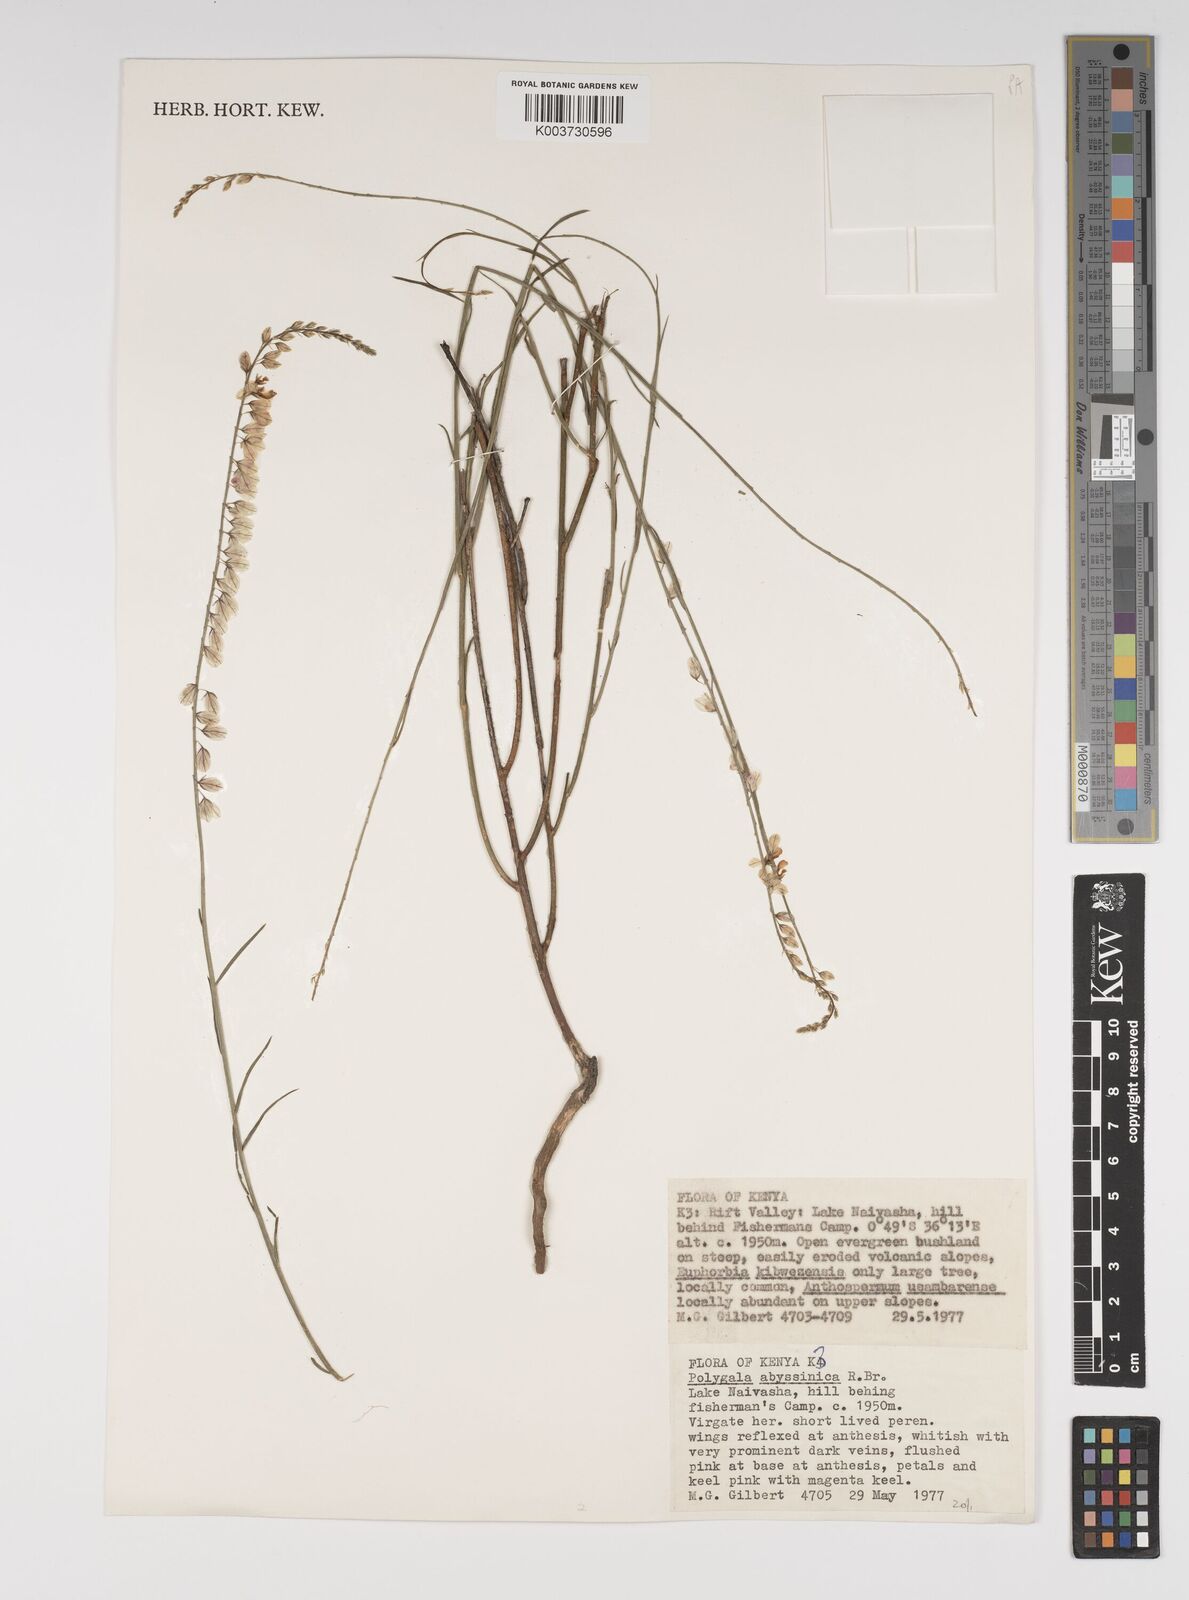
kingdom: Plantae
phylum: Tracheophyta
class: Magnoliopsida
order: Fabales
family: Polygalaceae
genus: Polygala
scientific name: Polygala abyssinica
